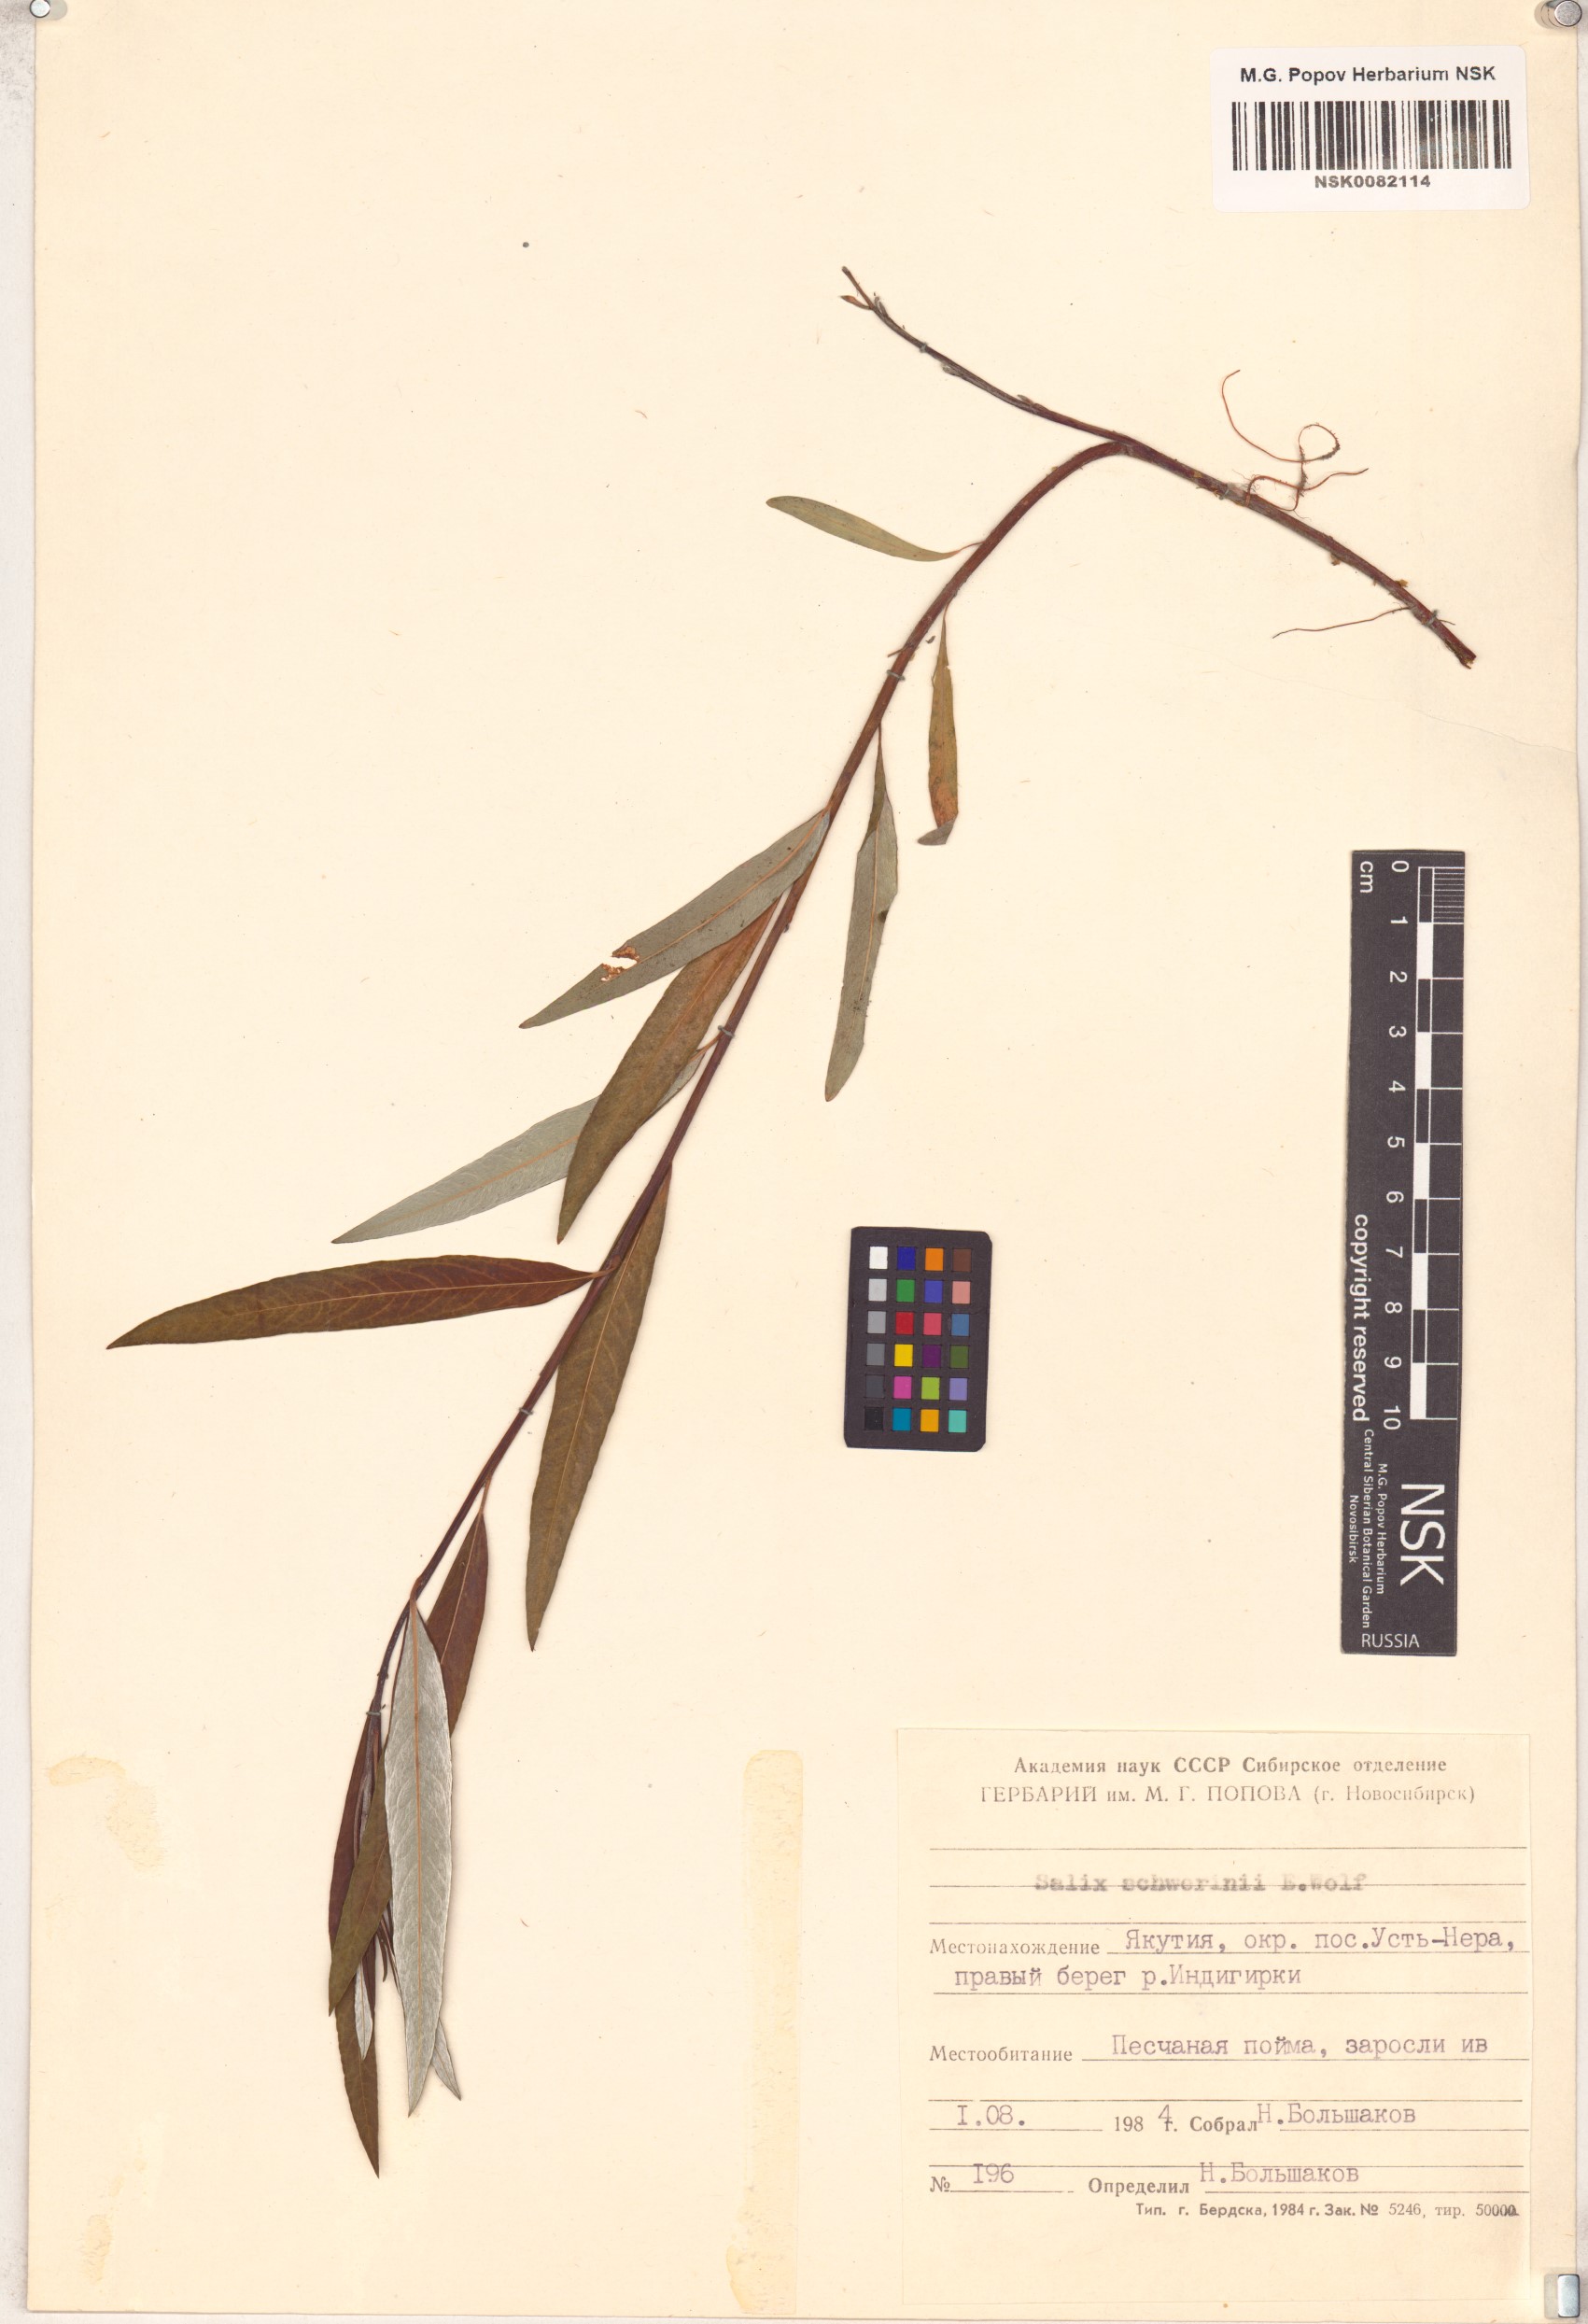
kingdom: Plantae
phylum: Tracheophyta
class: Magnoliopsida
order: Malpighiales
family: Salicaceae
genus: Salix
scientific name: Salix schwerinii
